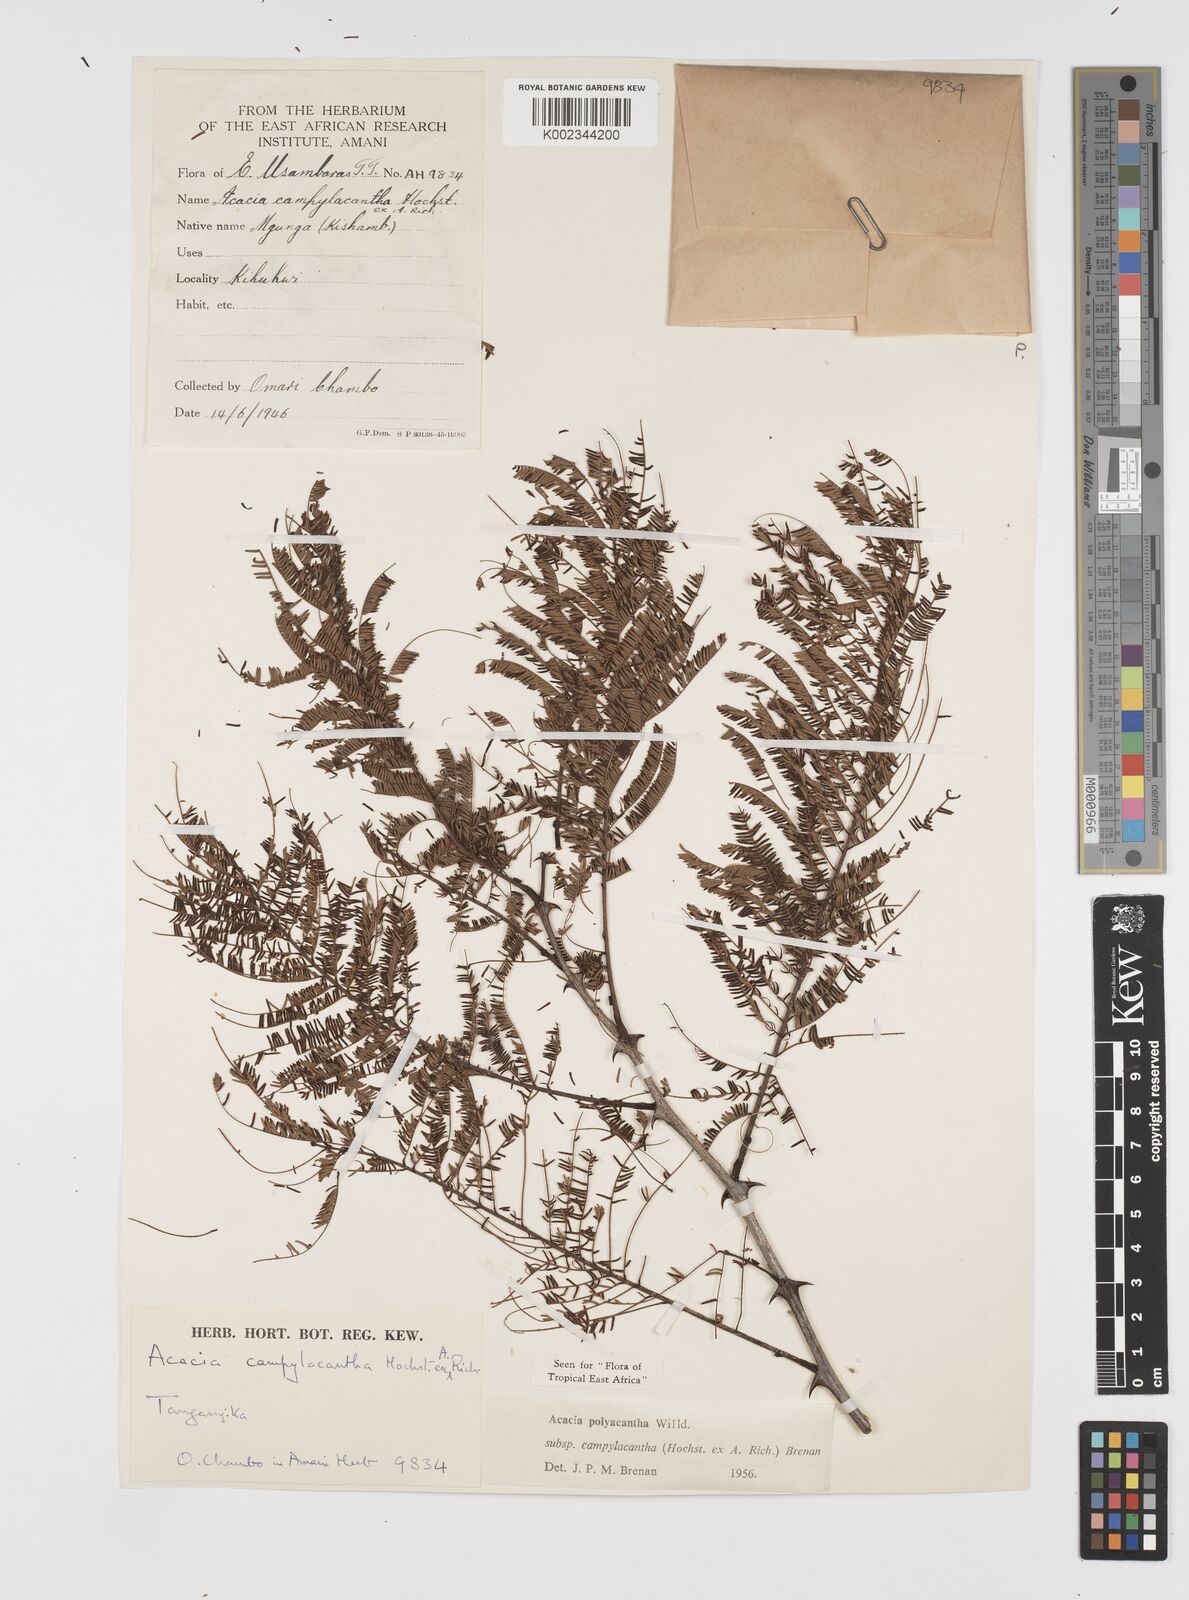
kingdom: Plantae
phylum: Tracheophyta
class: Magnoliopsida
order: Fabales
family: Fabaceae
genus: Senegalia
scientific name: Senegalia polyacantha
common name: Whitethorn
